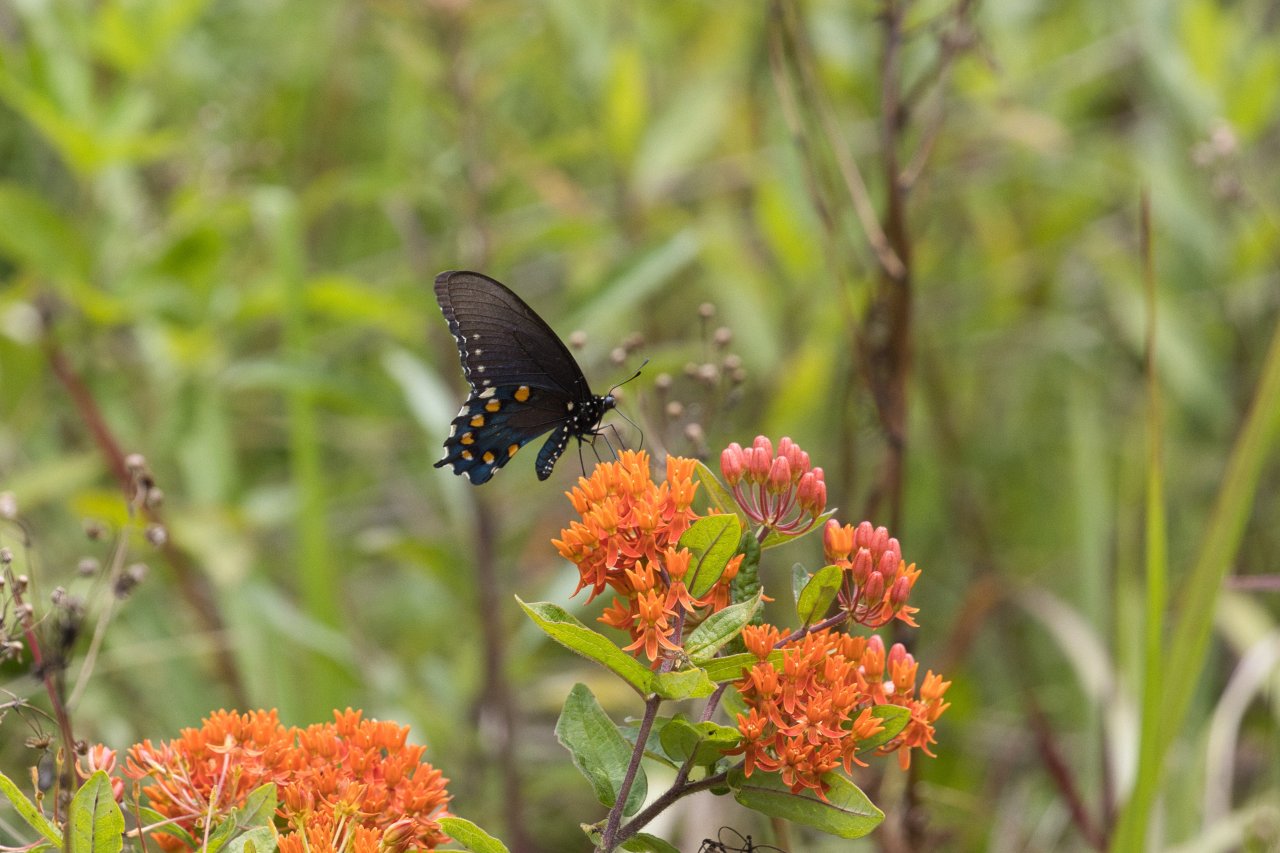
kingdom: Animalia
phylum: Arthropoda
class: Insecta
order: Lepidoptera
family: Papilionidae
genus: Battus
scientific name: Battus philenor
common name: Pipevine Swallowtail
